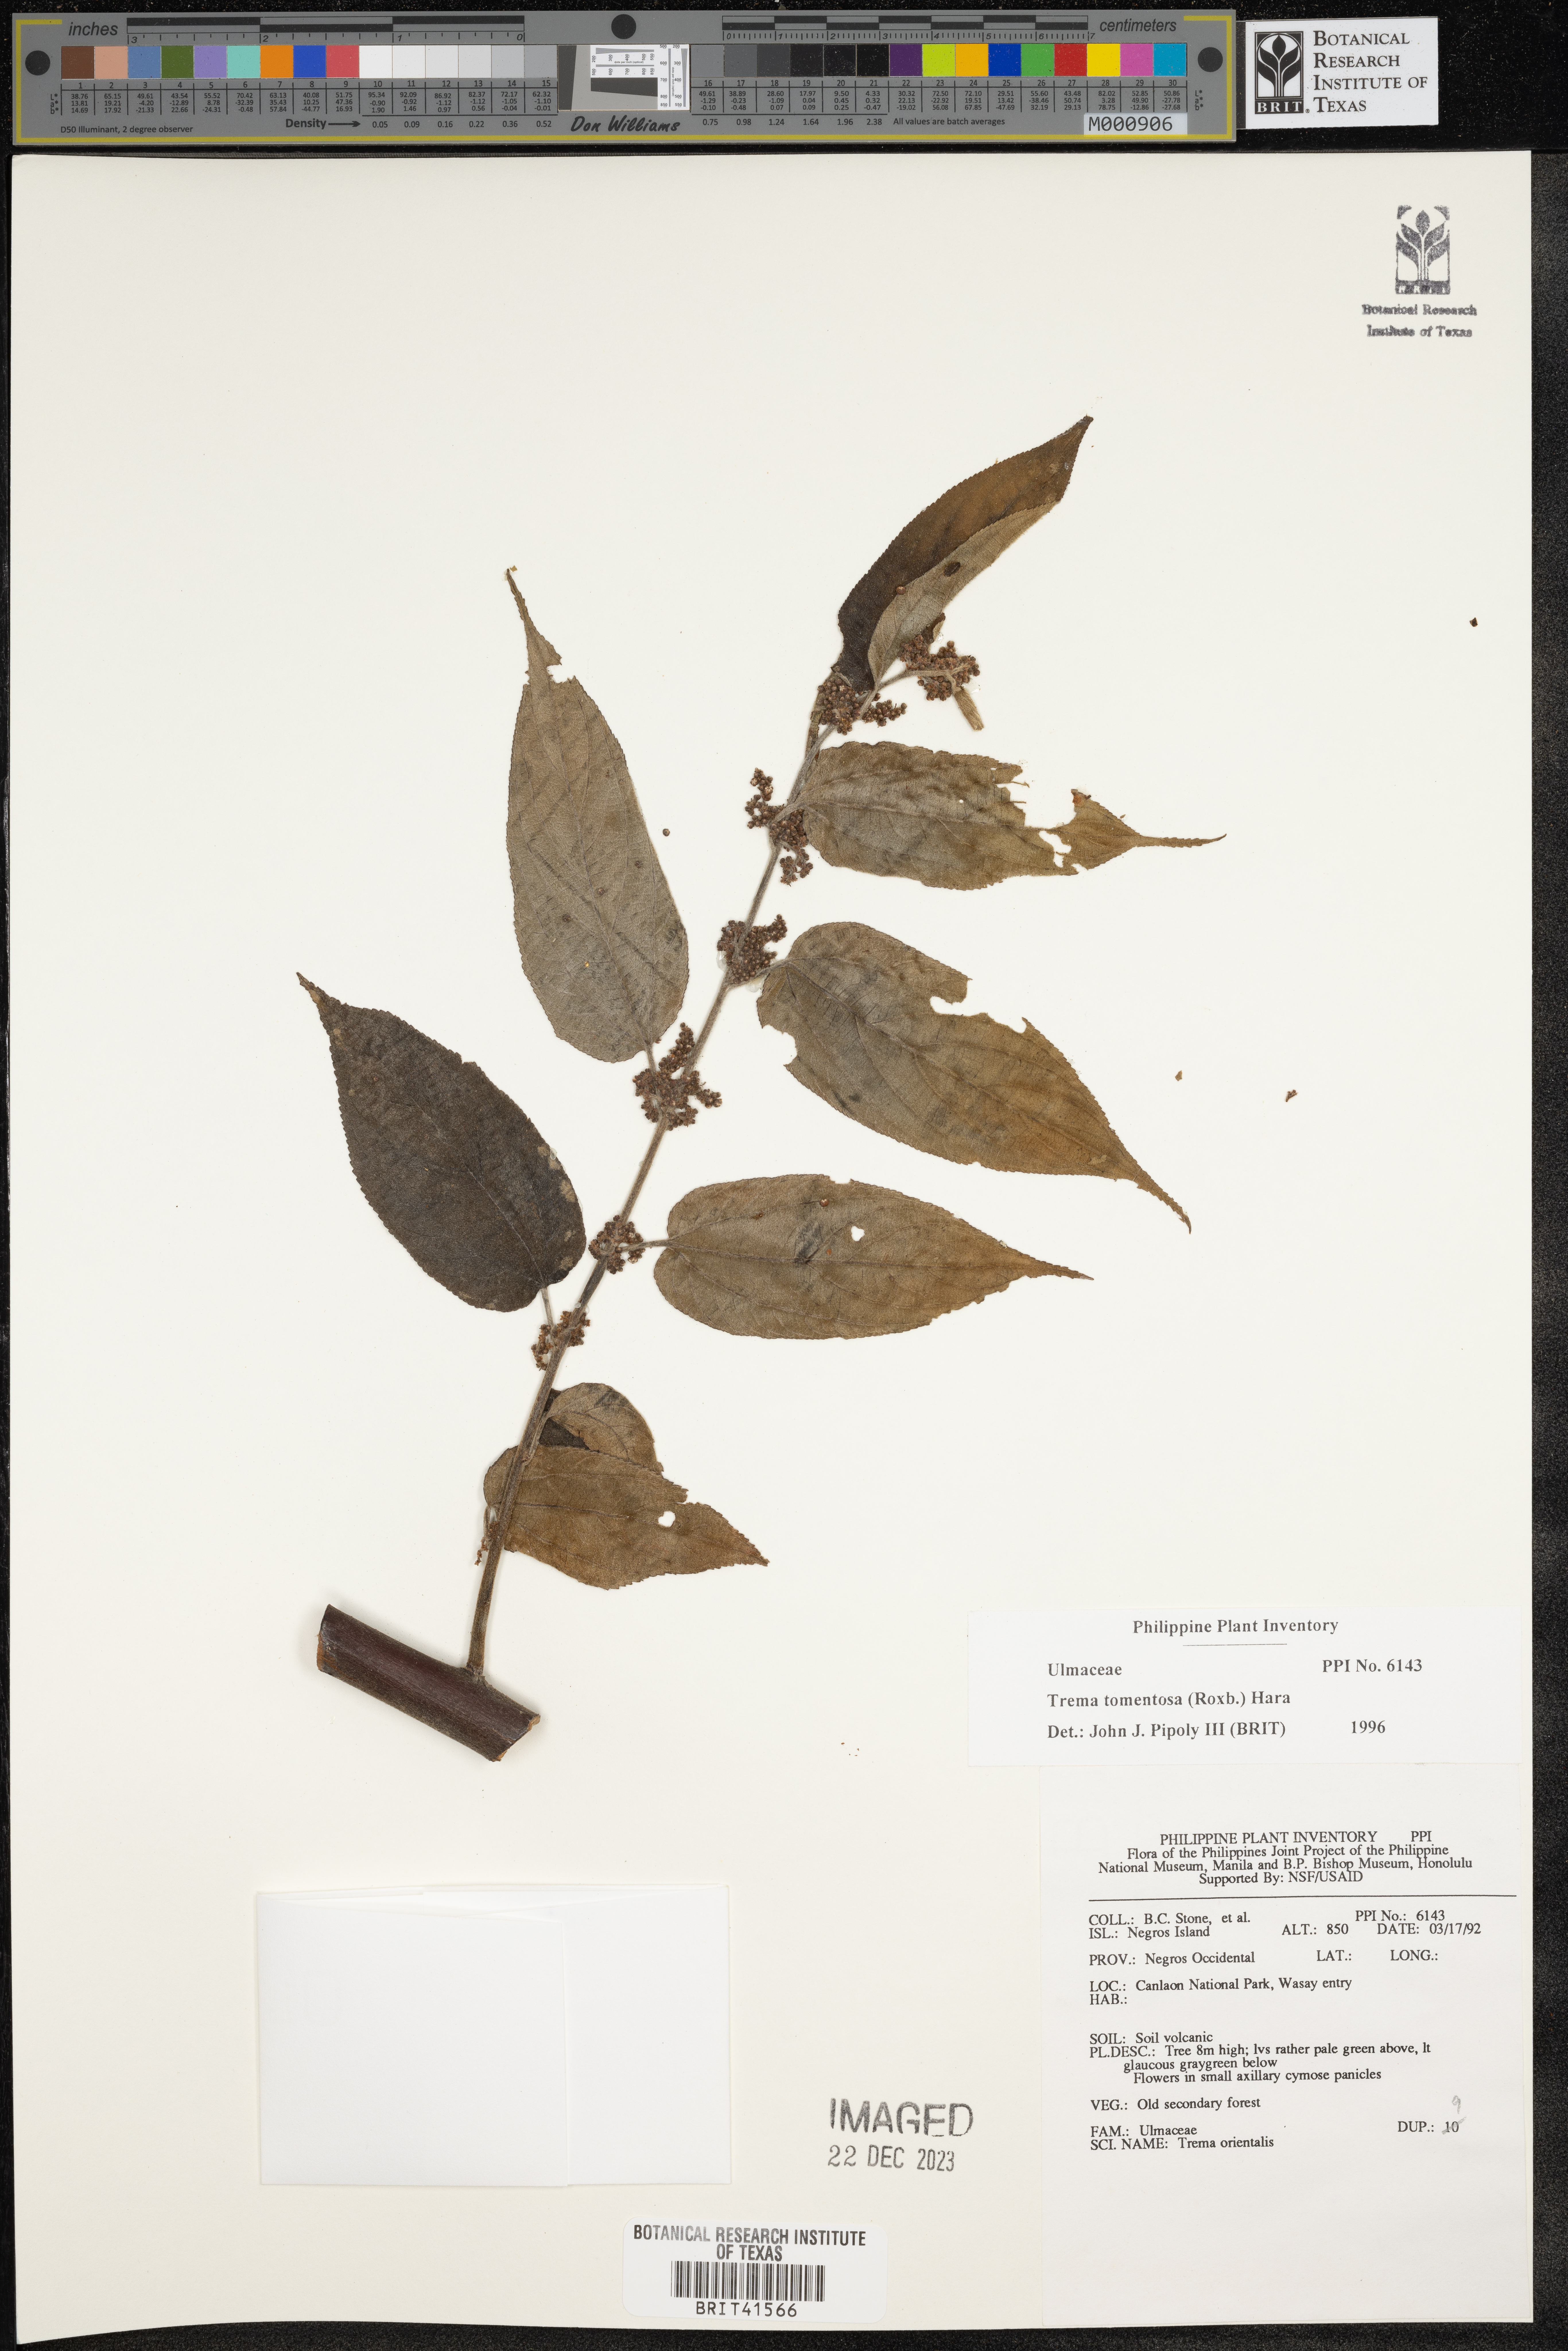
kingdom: Plantae
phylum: Tracheophyta
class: Magnoliopsida
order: Rosales
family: Cannabaceae
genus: Trema
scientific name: Trema tomentosum
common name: Peach-leaf-poisonbush
